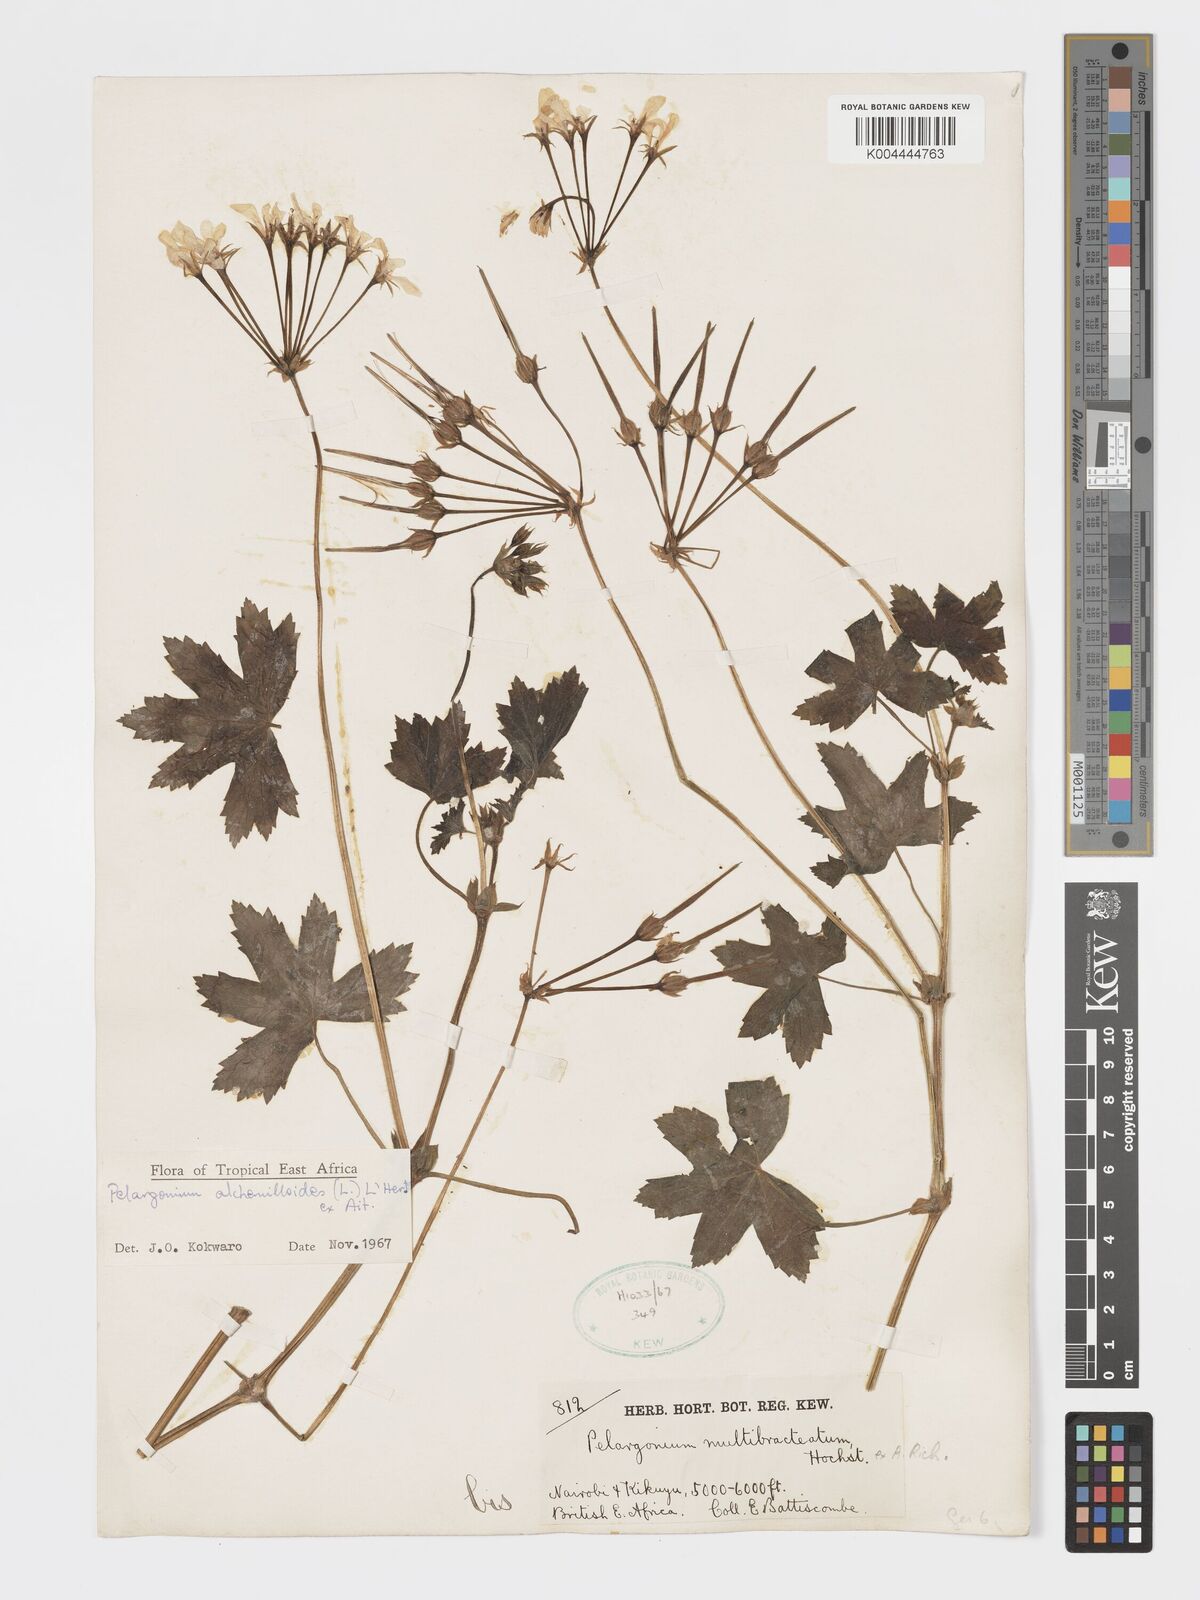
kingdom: Plantae
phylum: Tracheophyta
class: Magnoliopsida
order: Geraniales
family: Geraniaceae
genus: Pelargonium
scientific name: Pelargonium alchemilloides
